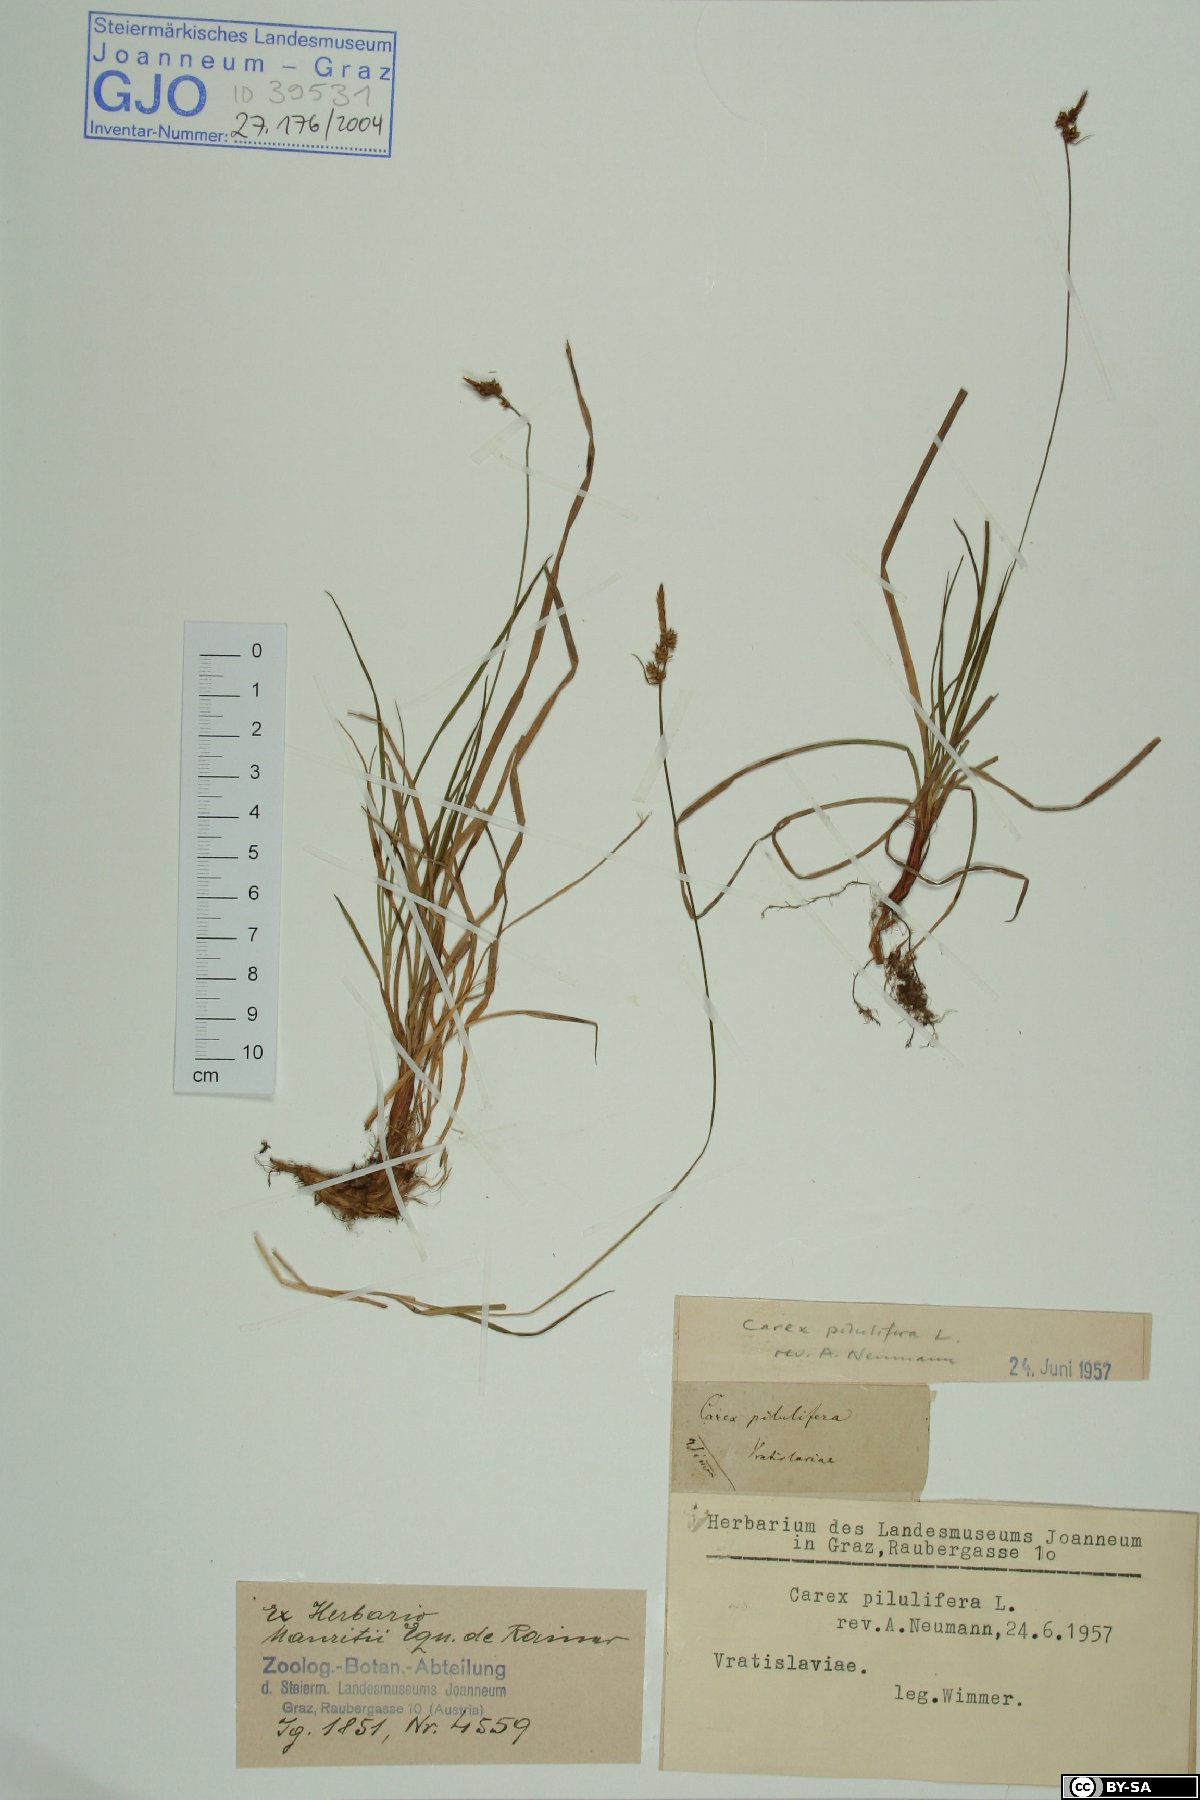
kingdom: Plantae
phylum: Tracheophyta
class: Liliopsida
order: Poales
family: Cyperaceae
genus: Carex
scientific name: Carex pilulifera
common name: Pill sedge
